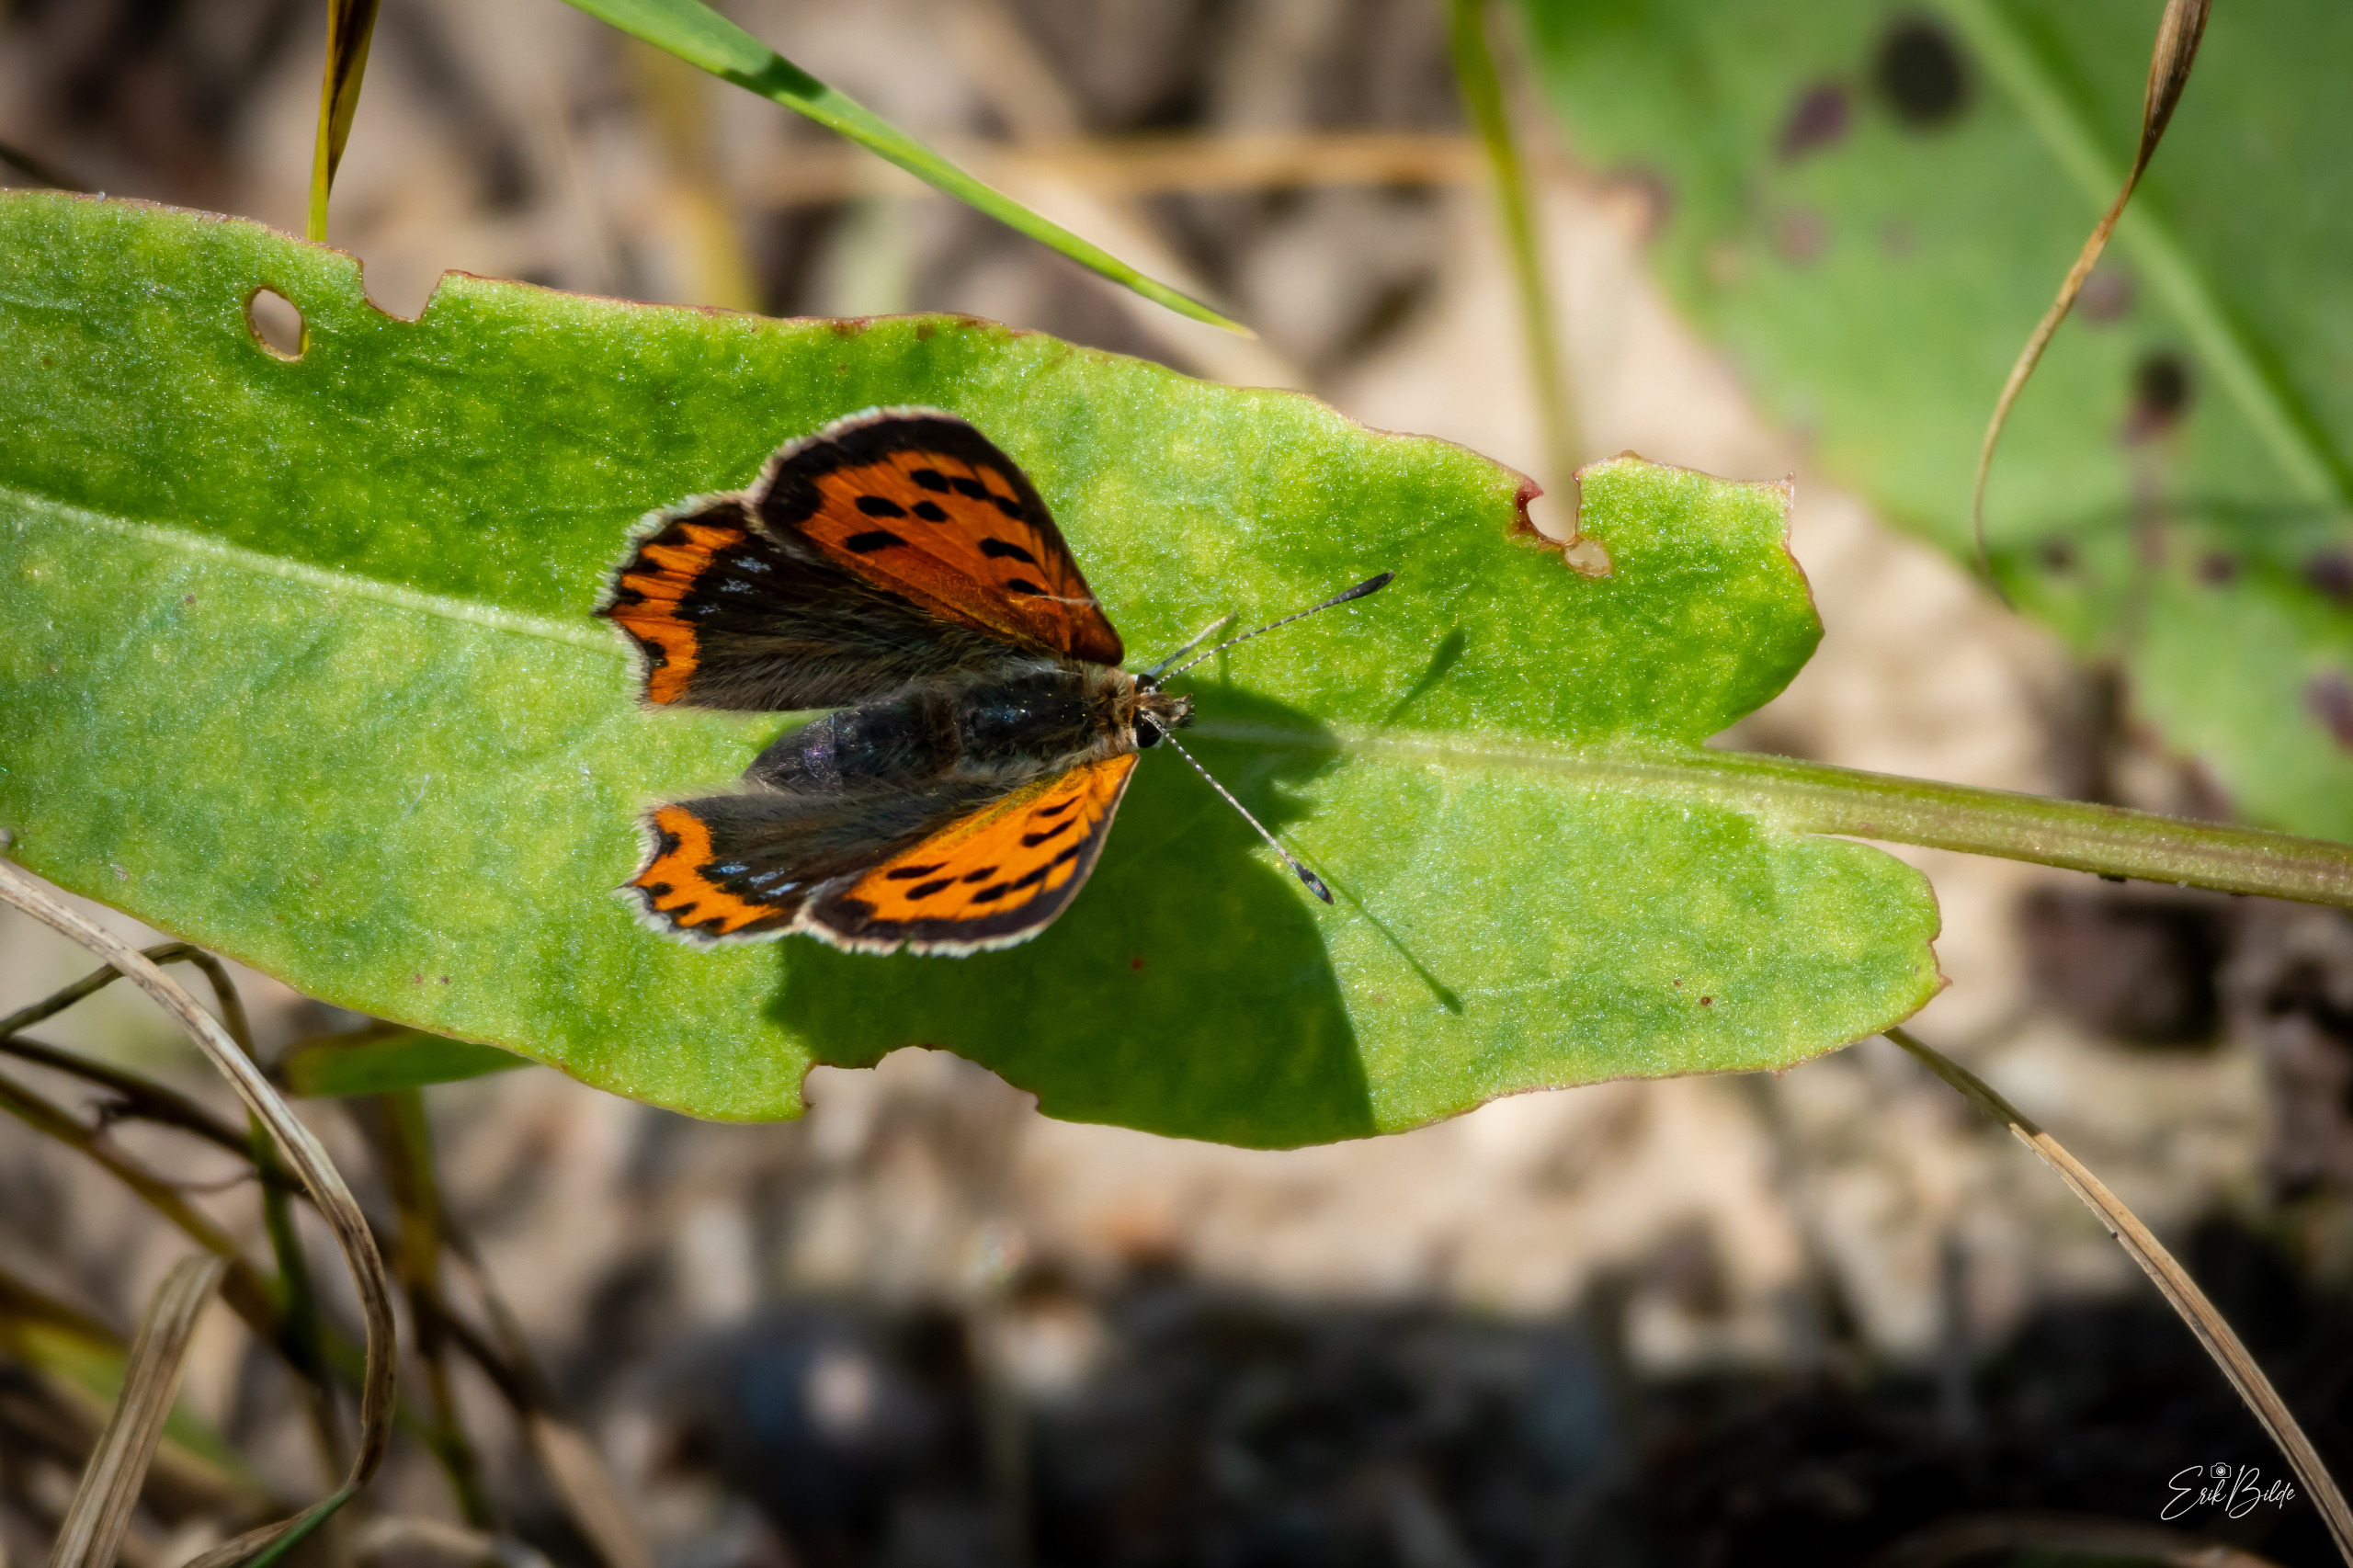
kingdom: Animalia
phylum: Arthropoda
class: Insecta
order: Lepidoptera
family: Lycaenidae
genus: Lycaena
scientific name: Lycaena phlaeas
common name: Lille ildfugl
